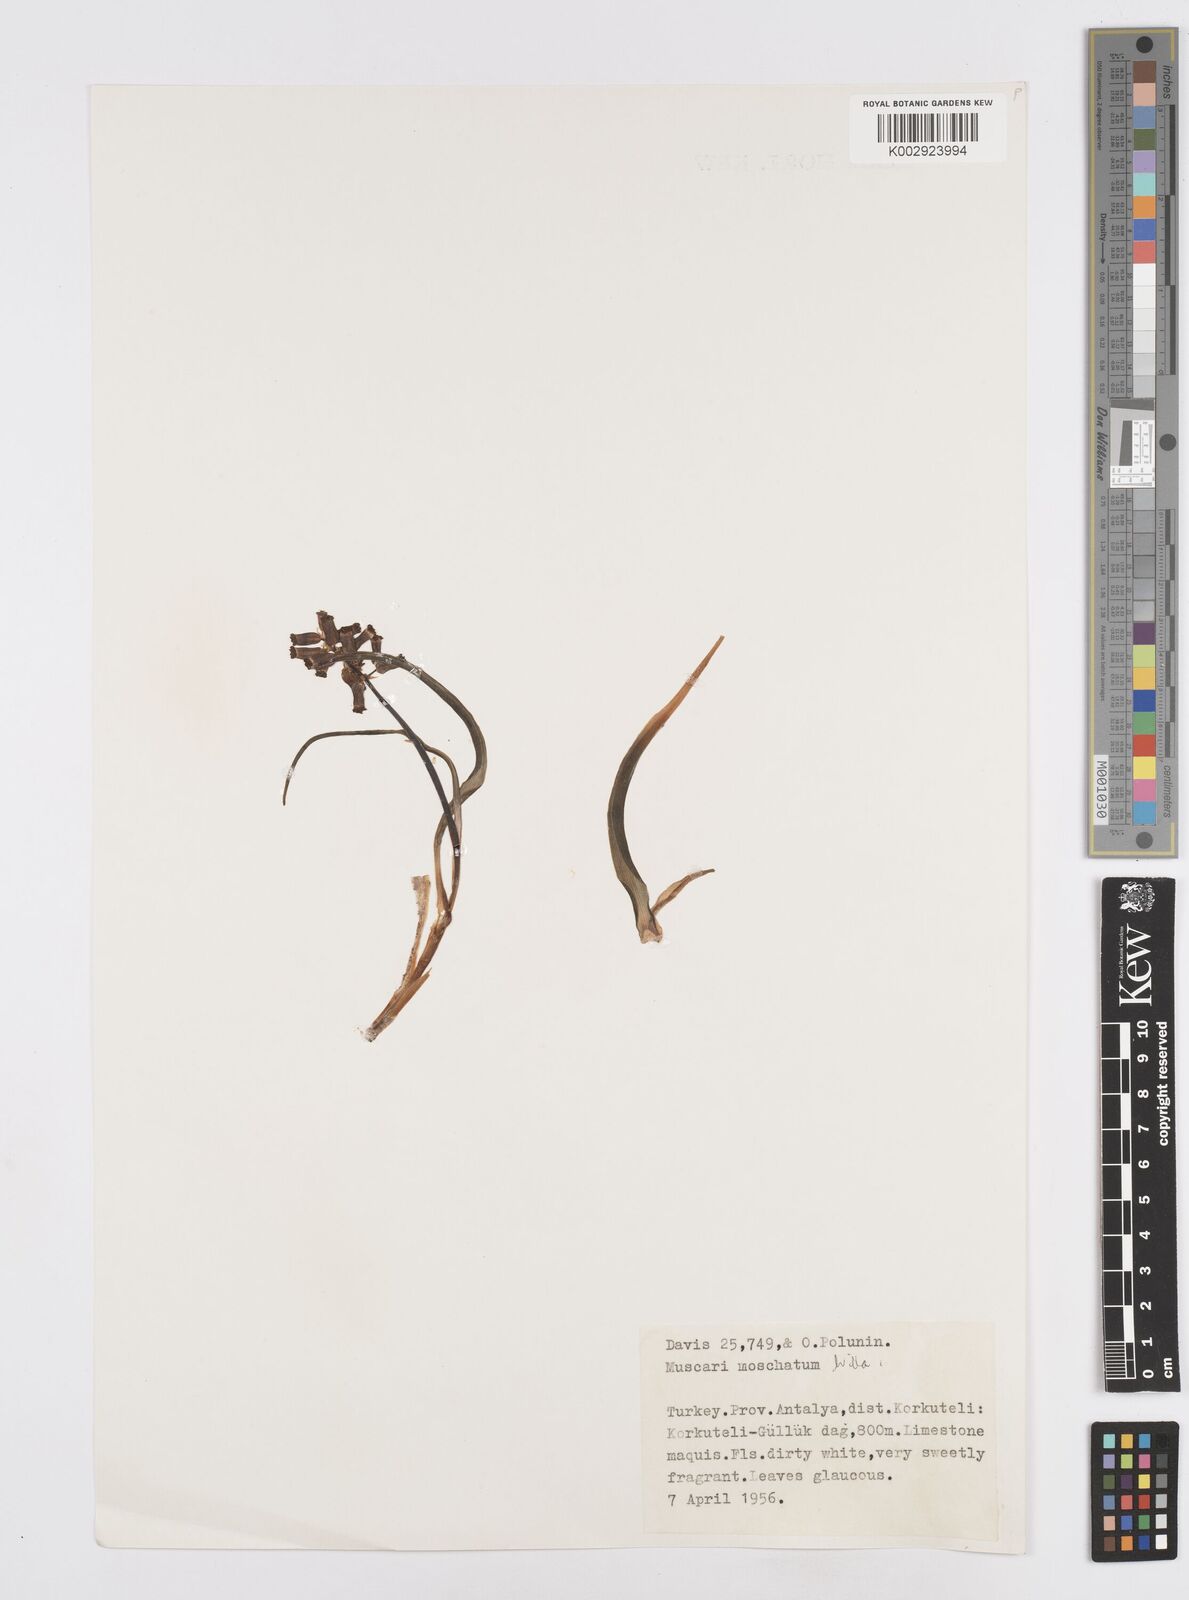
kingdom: Plantae
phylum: Tracheophyta
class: Liliopsida
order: Asparagales
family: Asparagaceae
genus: Muscari
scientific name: Muscari
